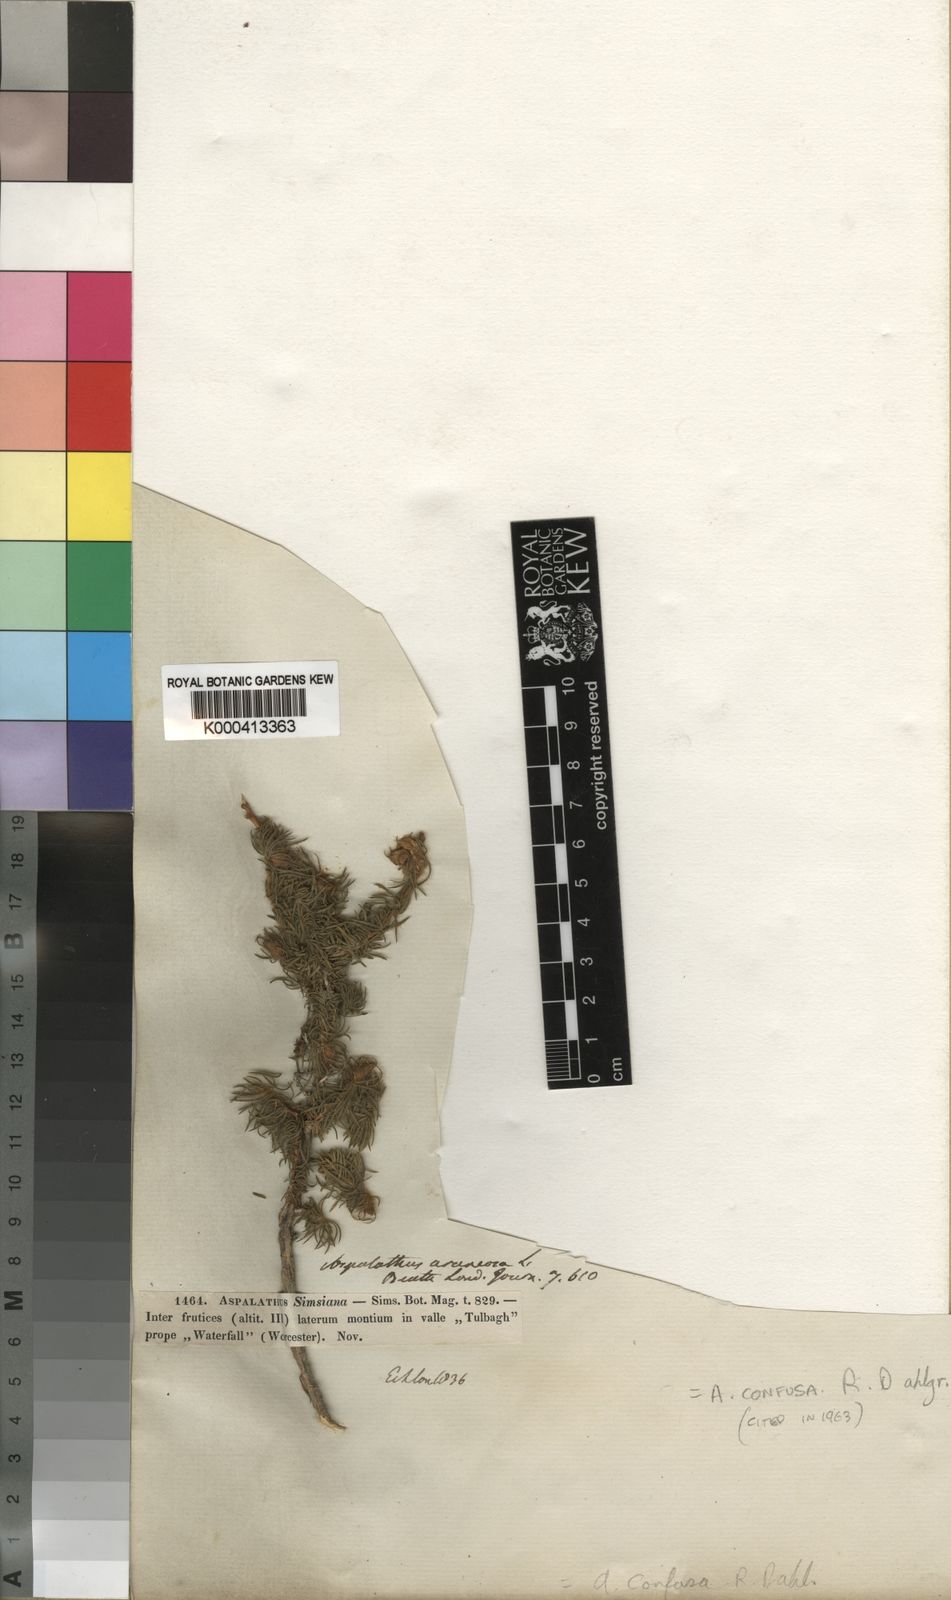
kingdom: Plantae
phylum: Tracheophyta
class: Magnoliopsida
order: Fabales
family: Fabaceae
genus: Aspalathus
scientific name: Aspalathus confusa
